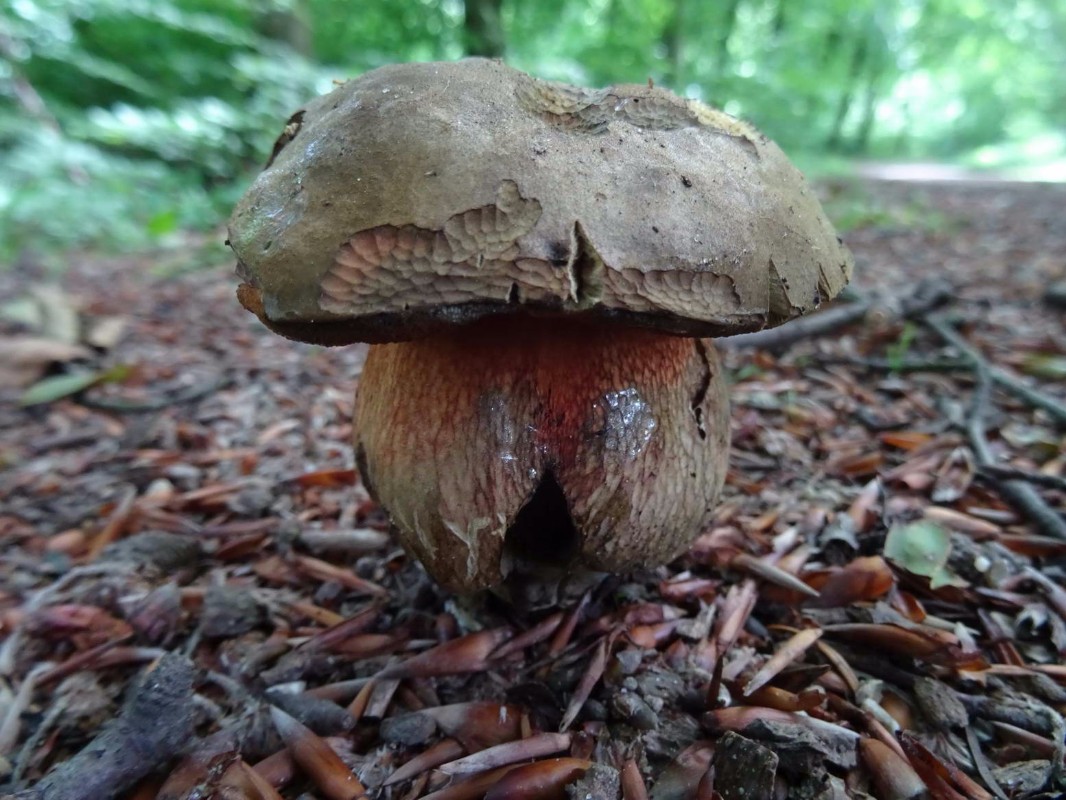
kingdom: Fungi
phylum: Basidiomycota
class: Agaricomycetes
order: Boletales
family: Boletaceae
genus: Suillellus
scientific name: Suillellus luridus
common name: netstokket indigorørhat
